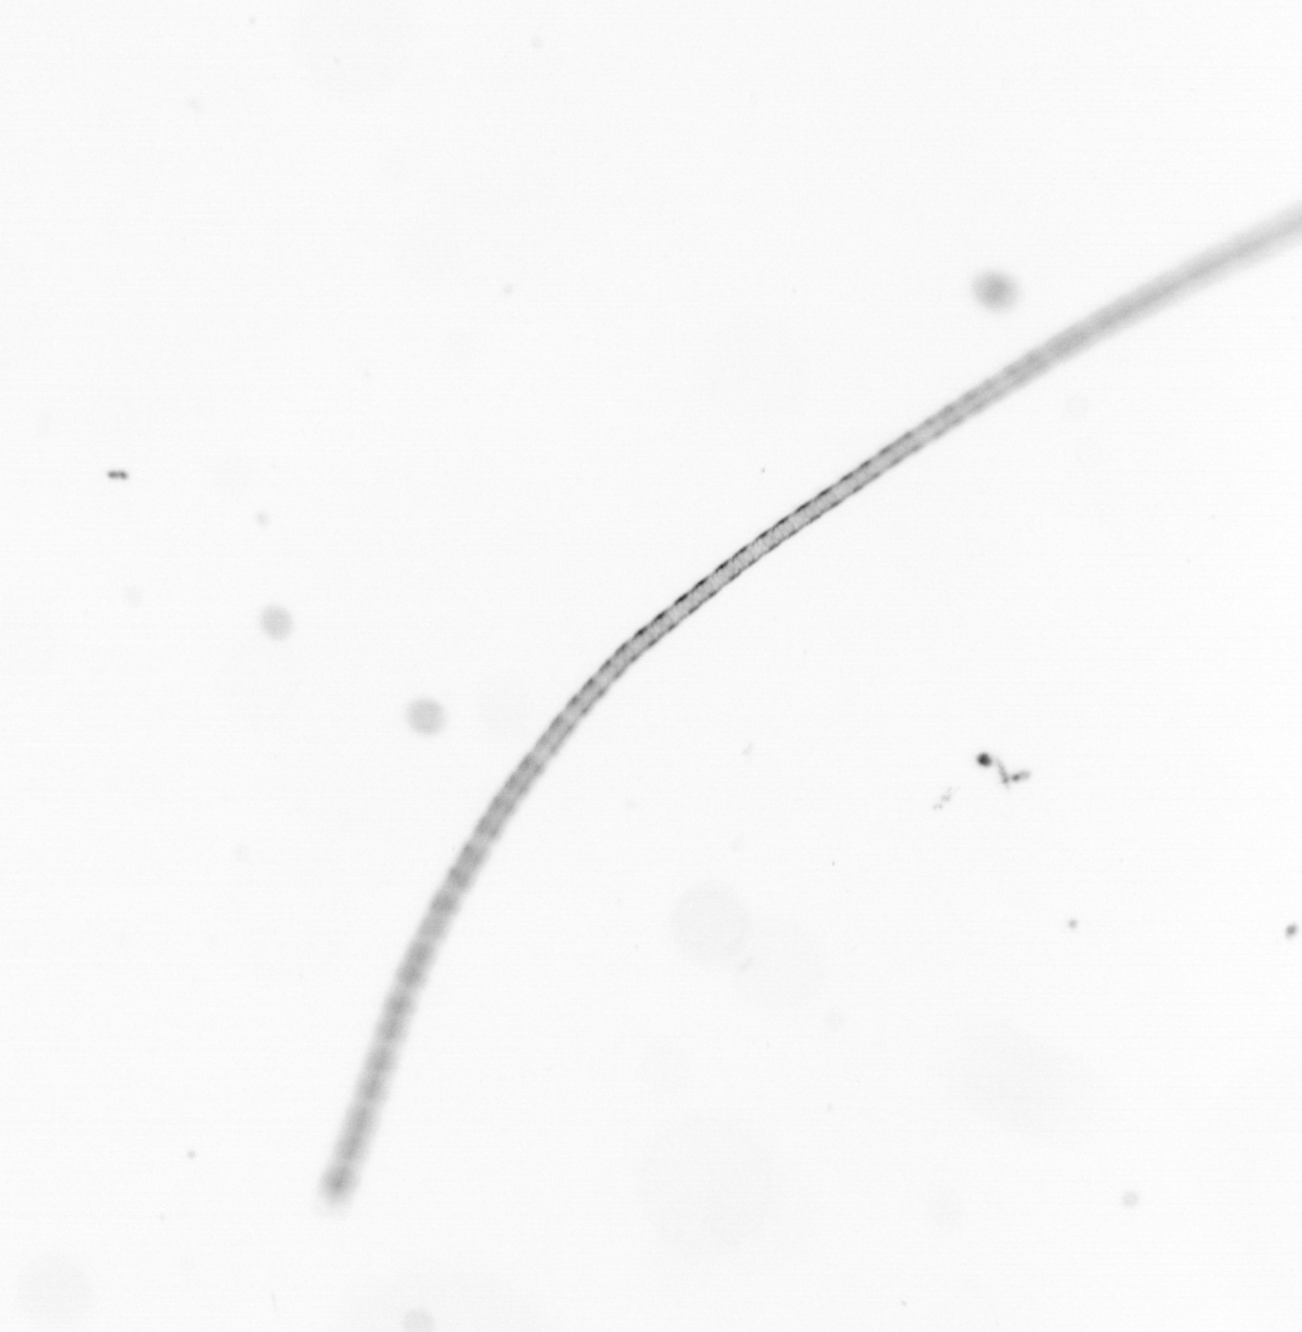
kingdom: Chromista
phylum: Ochrophyta
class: Bacillariophyceae
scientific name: Bacillariophyceae
